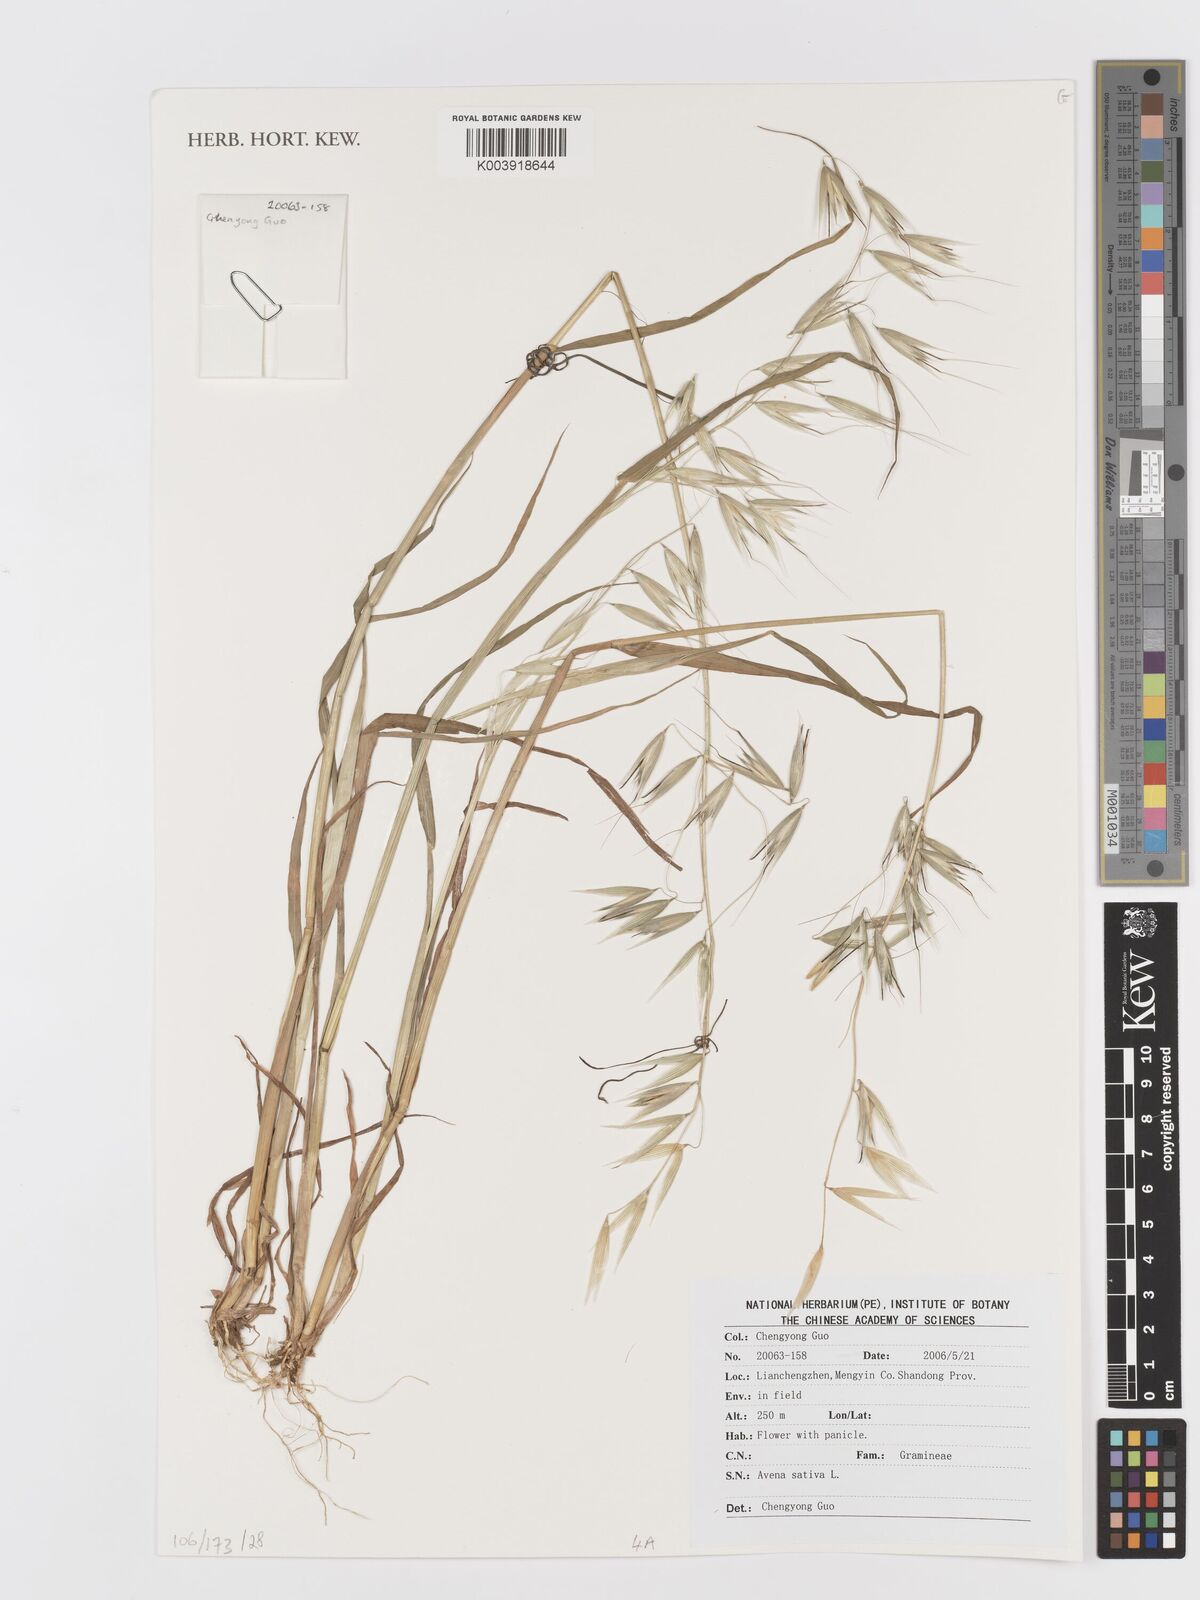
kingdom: Plantae
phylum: Tracheophyta
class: Liliopsida
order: Poales
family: Poaceae
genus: Avena
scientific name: Avena sativa
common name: Oat
